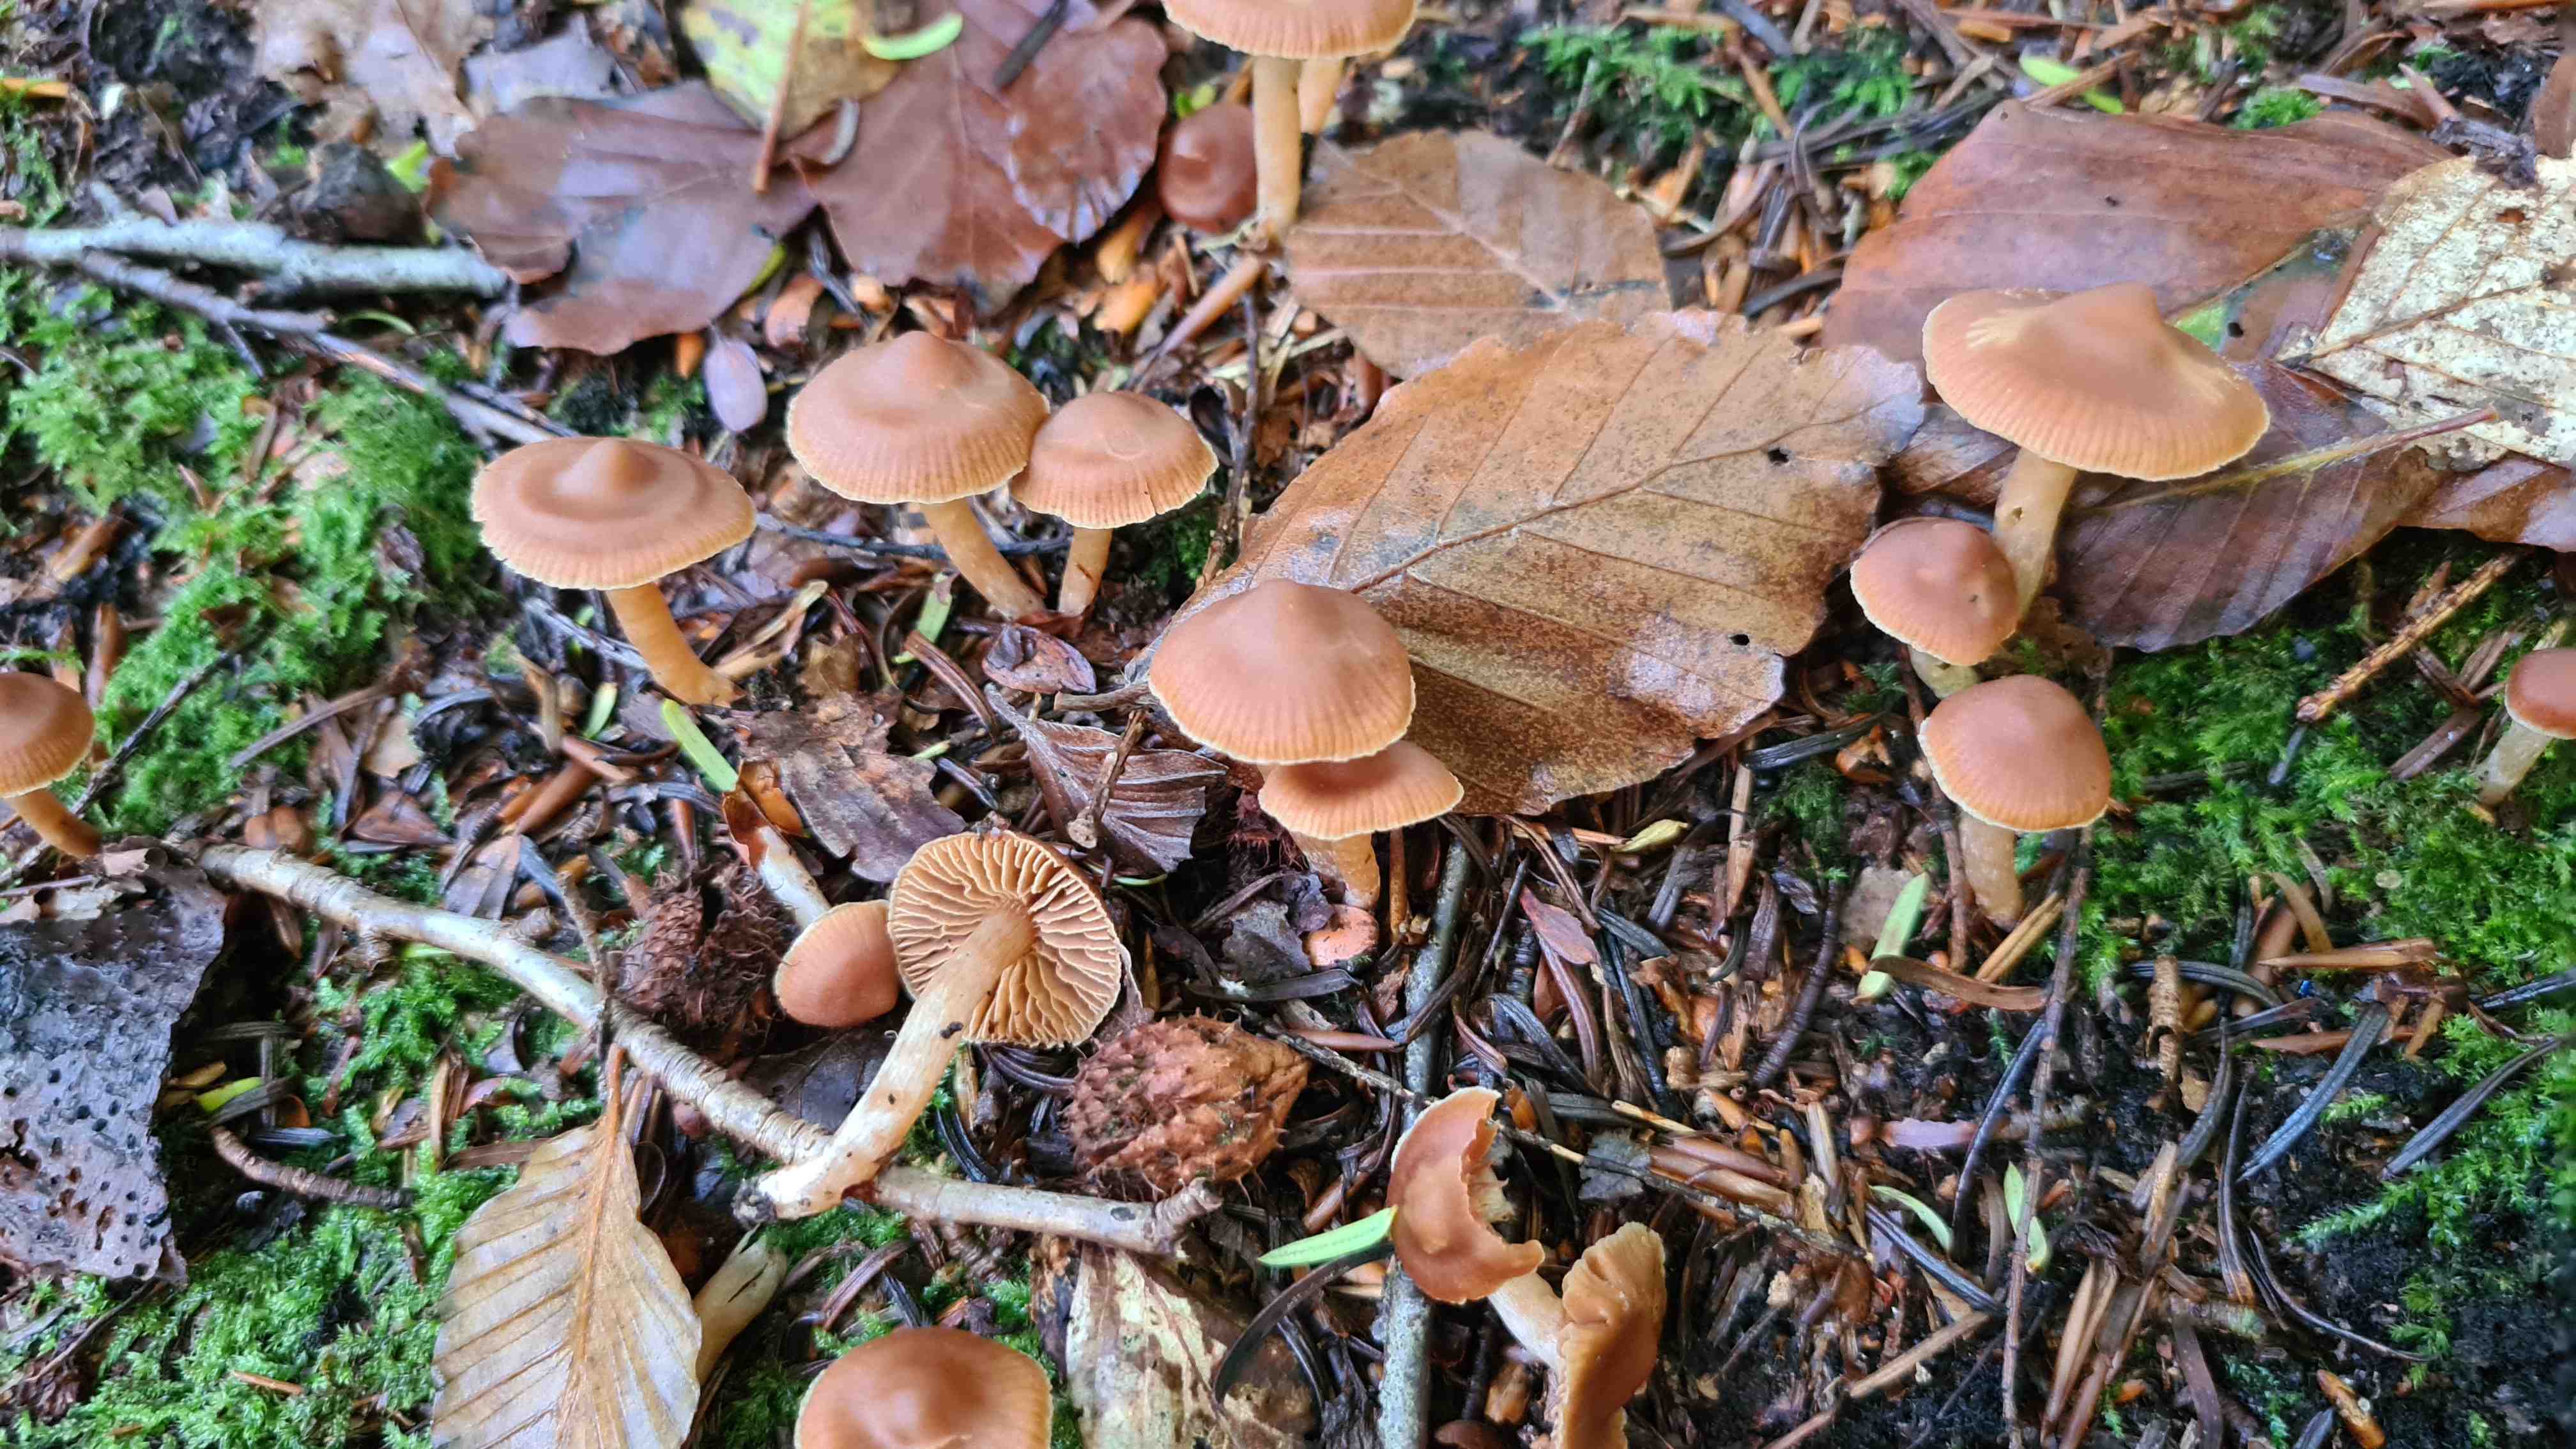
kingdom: Fungi
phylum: Basidiomycota
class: Agaricomycetes
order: Agaricales
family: Cortinariaceae
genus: Cortinarius
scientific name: Cortinarius mammillatus
